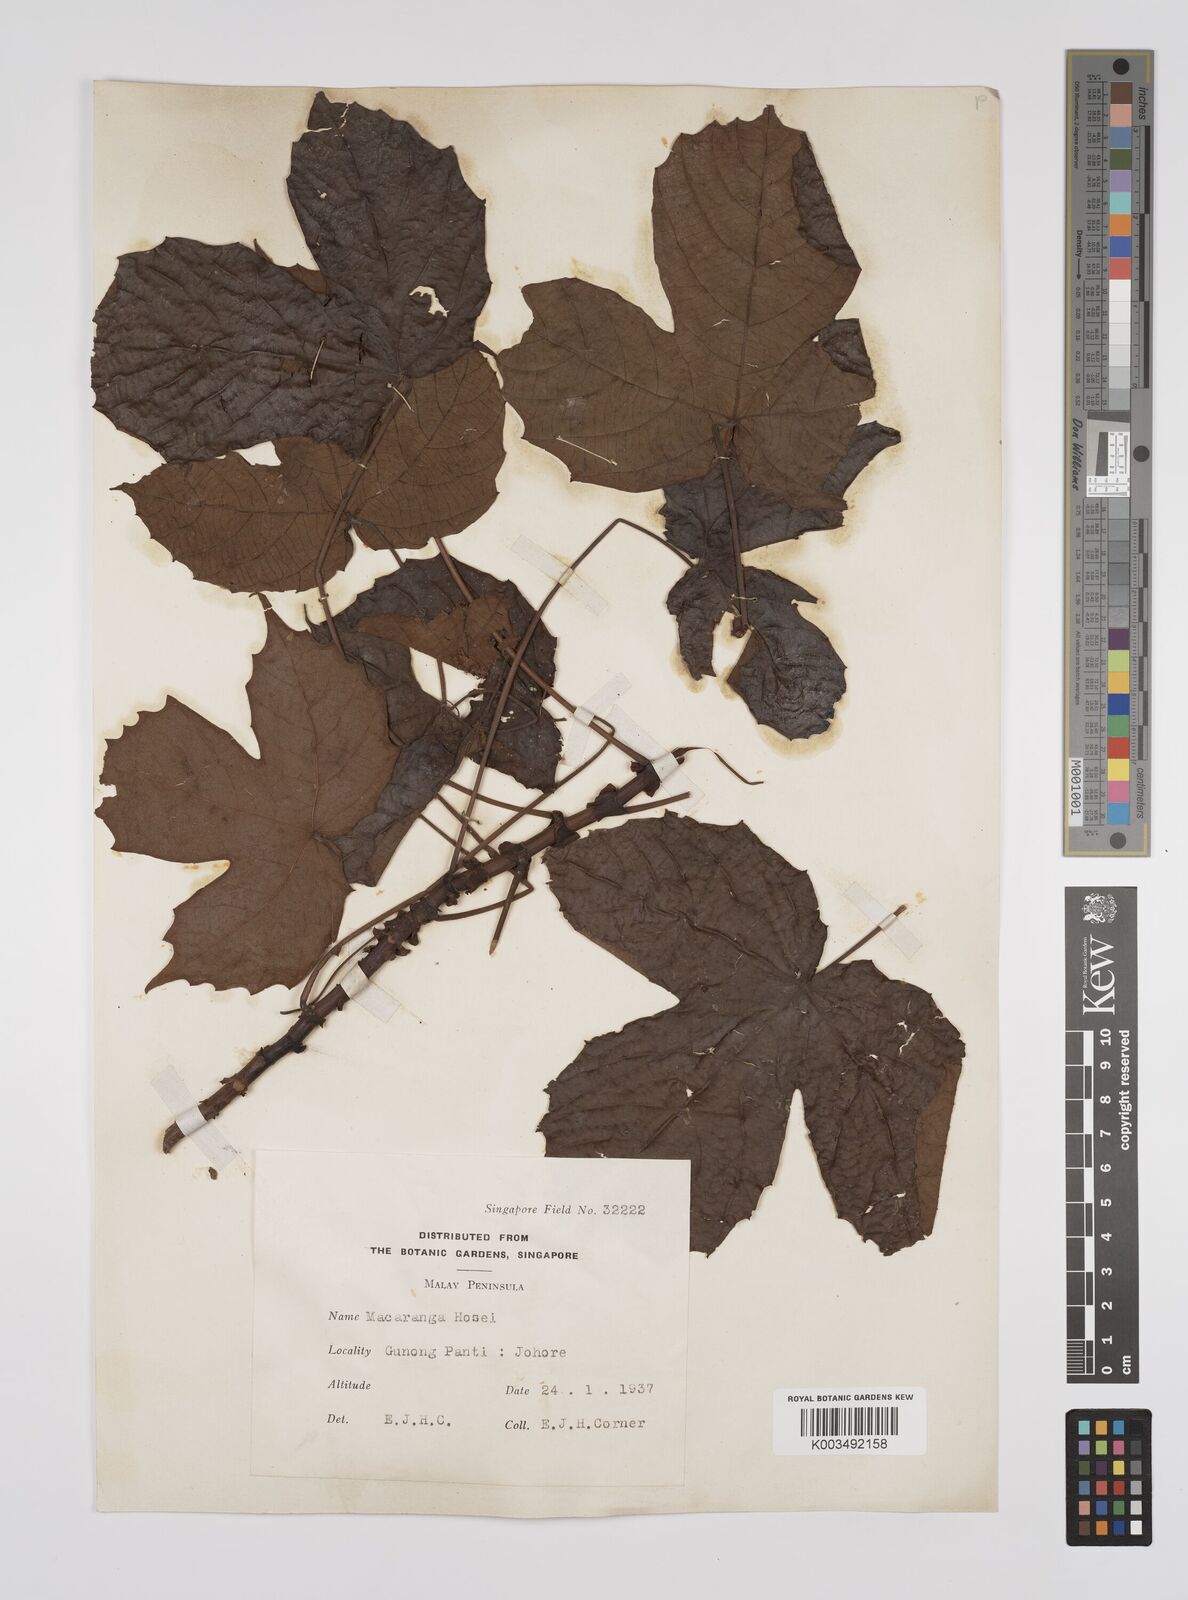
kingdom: Plantae
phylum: Tracheophyta
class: Magnoliopsida
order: Malpighiales
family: Euphorbiaceae
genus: Macaranga
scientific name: Macaranga hosei
